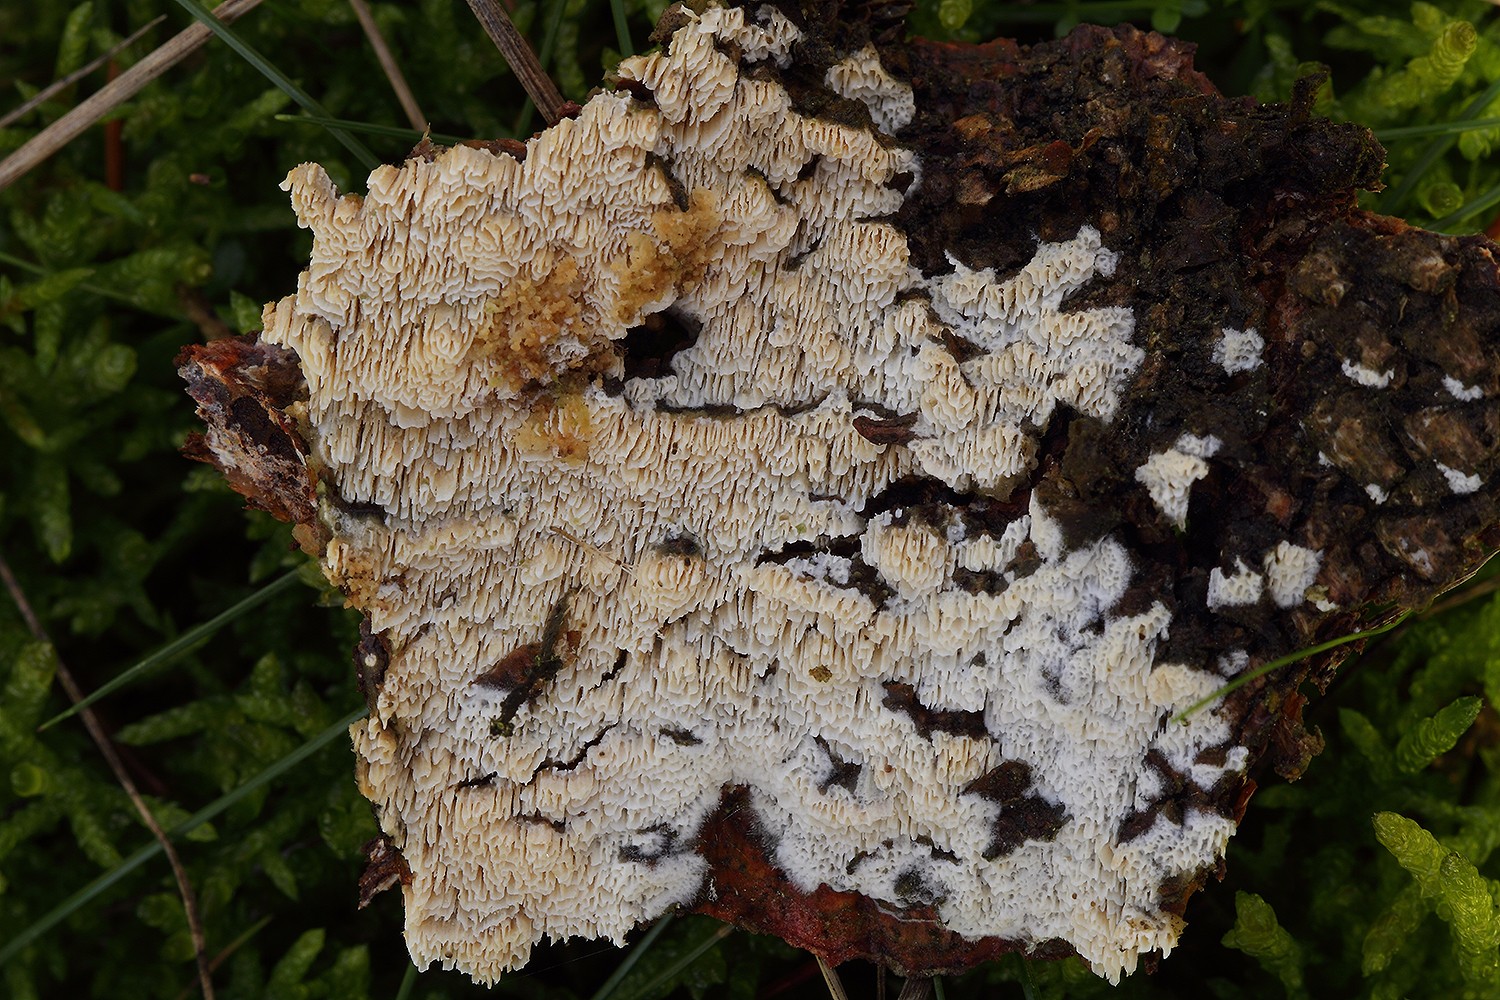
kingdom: Fungi
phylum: Basidiomycota
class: Agaricomycetes
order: Hymenochaetales
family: Schizoporaceae
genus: Xylodon
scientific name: Xylodon subtropicus
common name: labyrint-tandsvamp
